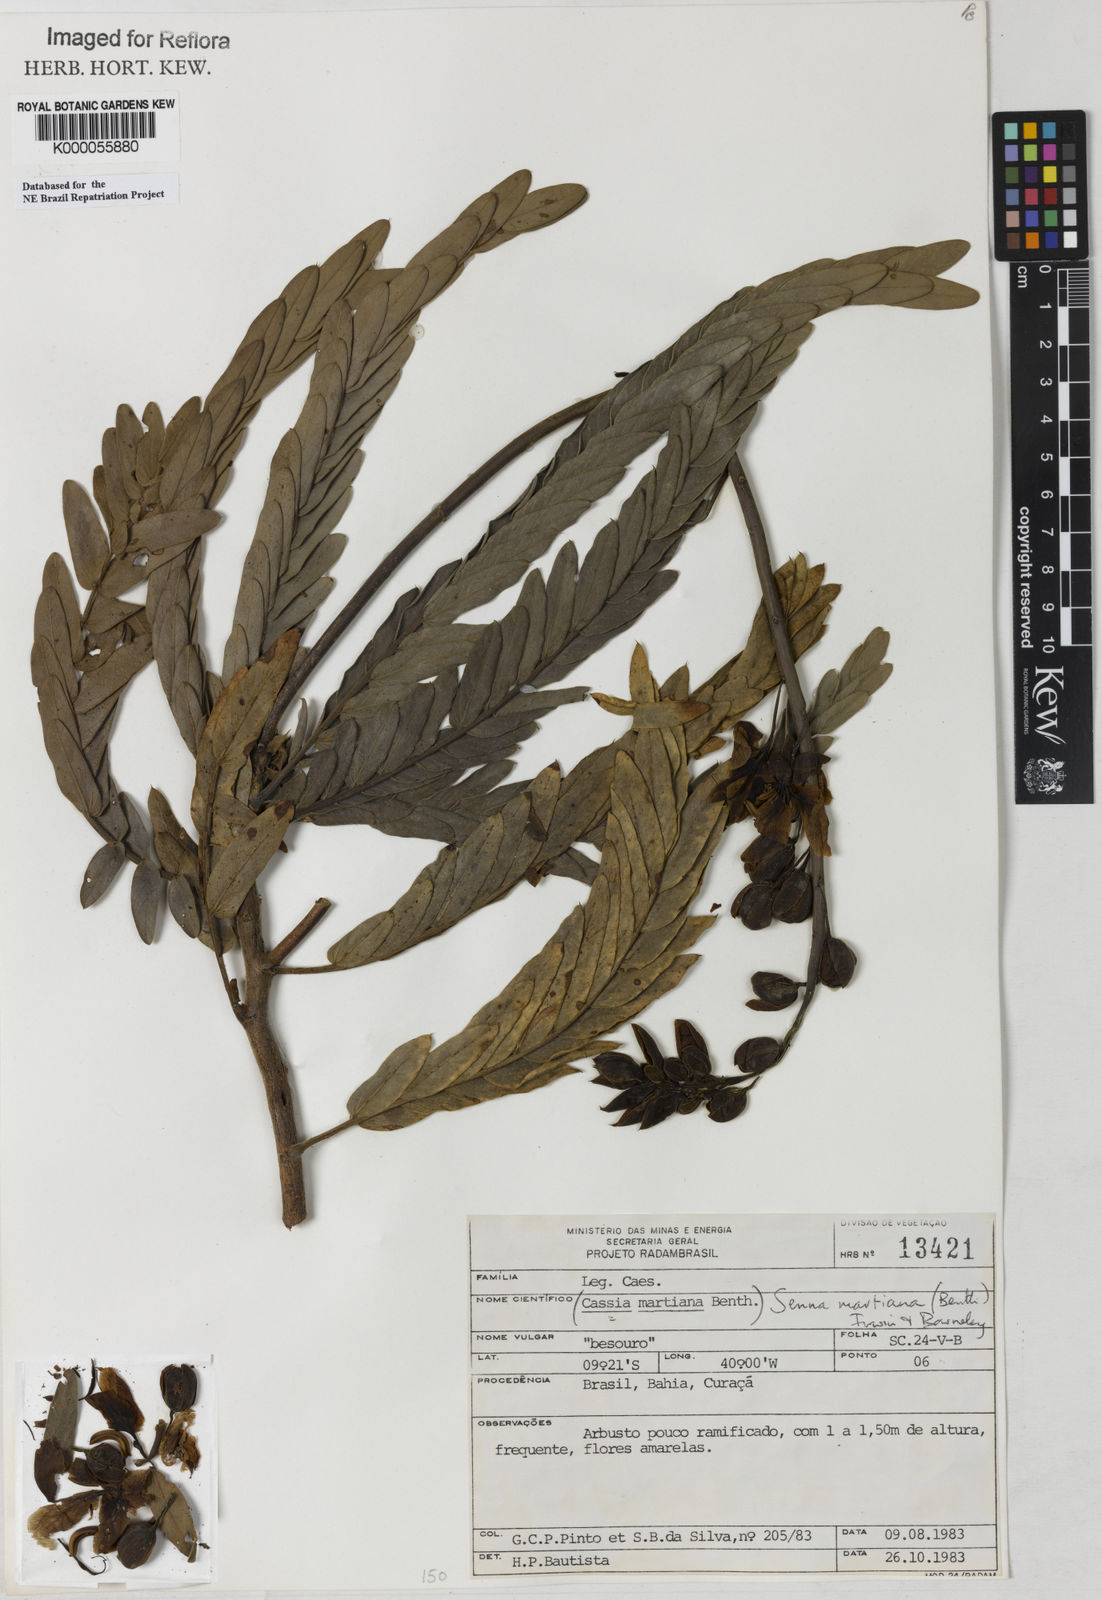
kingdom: Plantae
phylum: Tracheophyta
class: Magnoliopsida
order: Fabales
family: Fabaceae
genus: Senna
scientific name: Senna martiana
